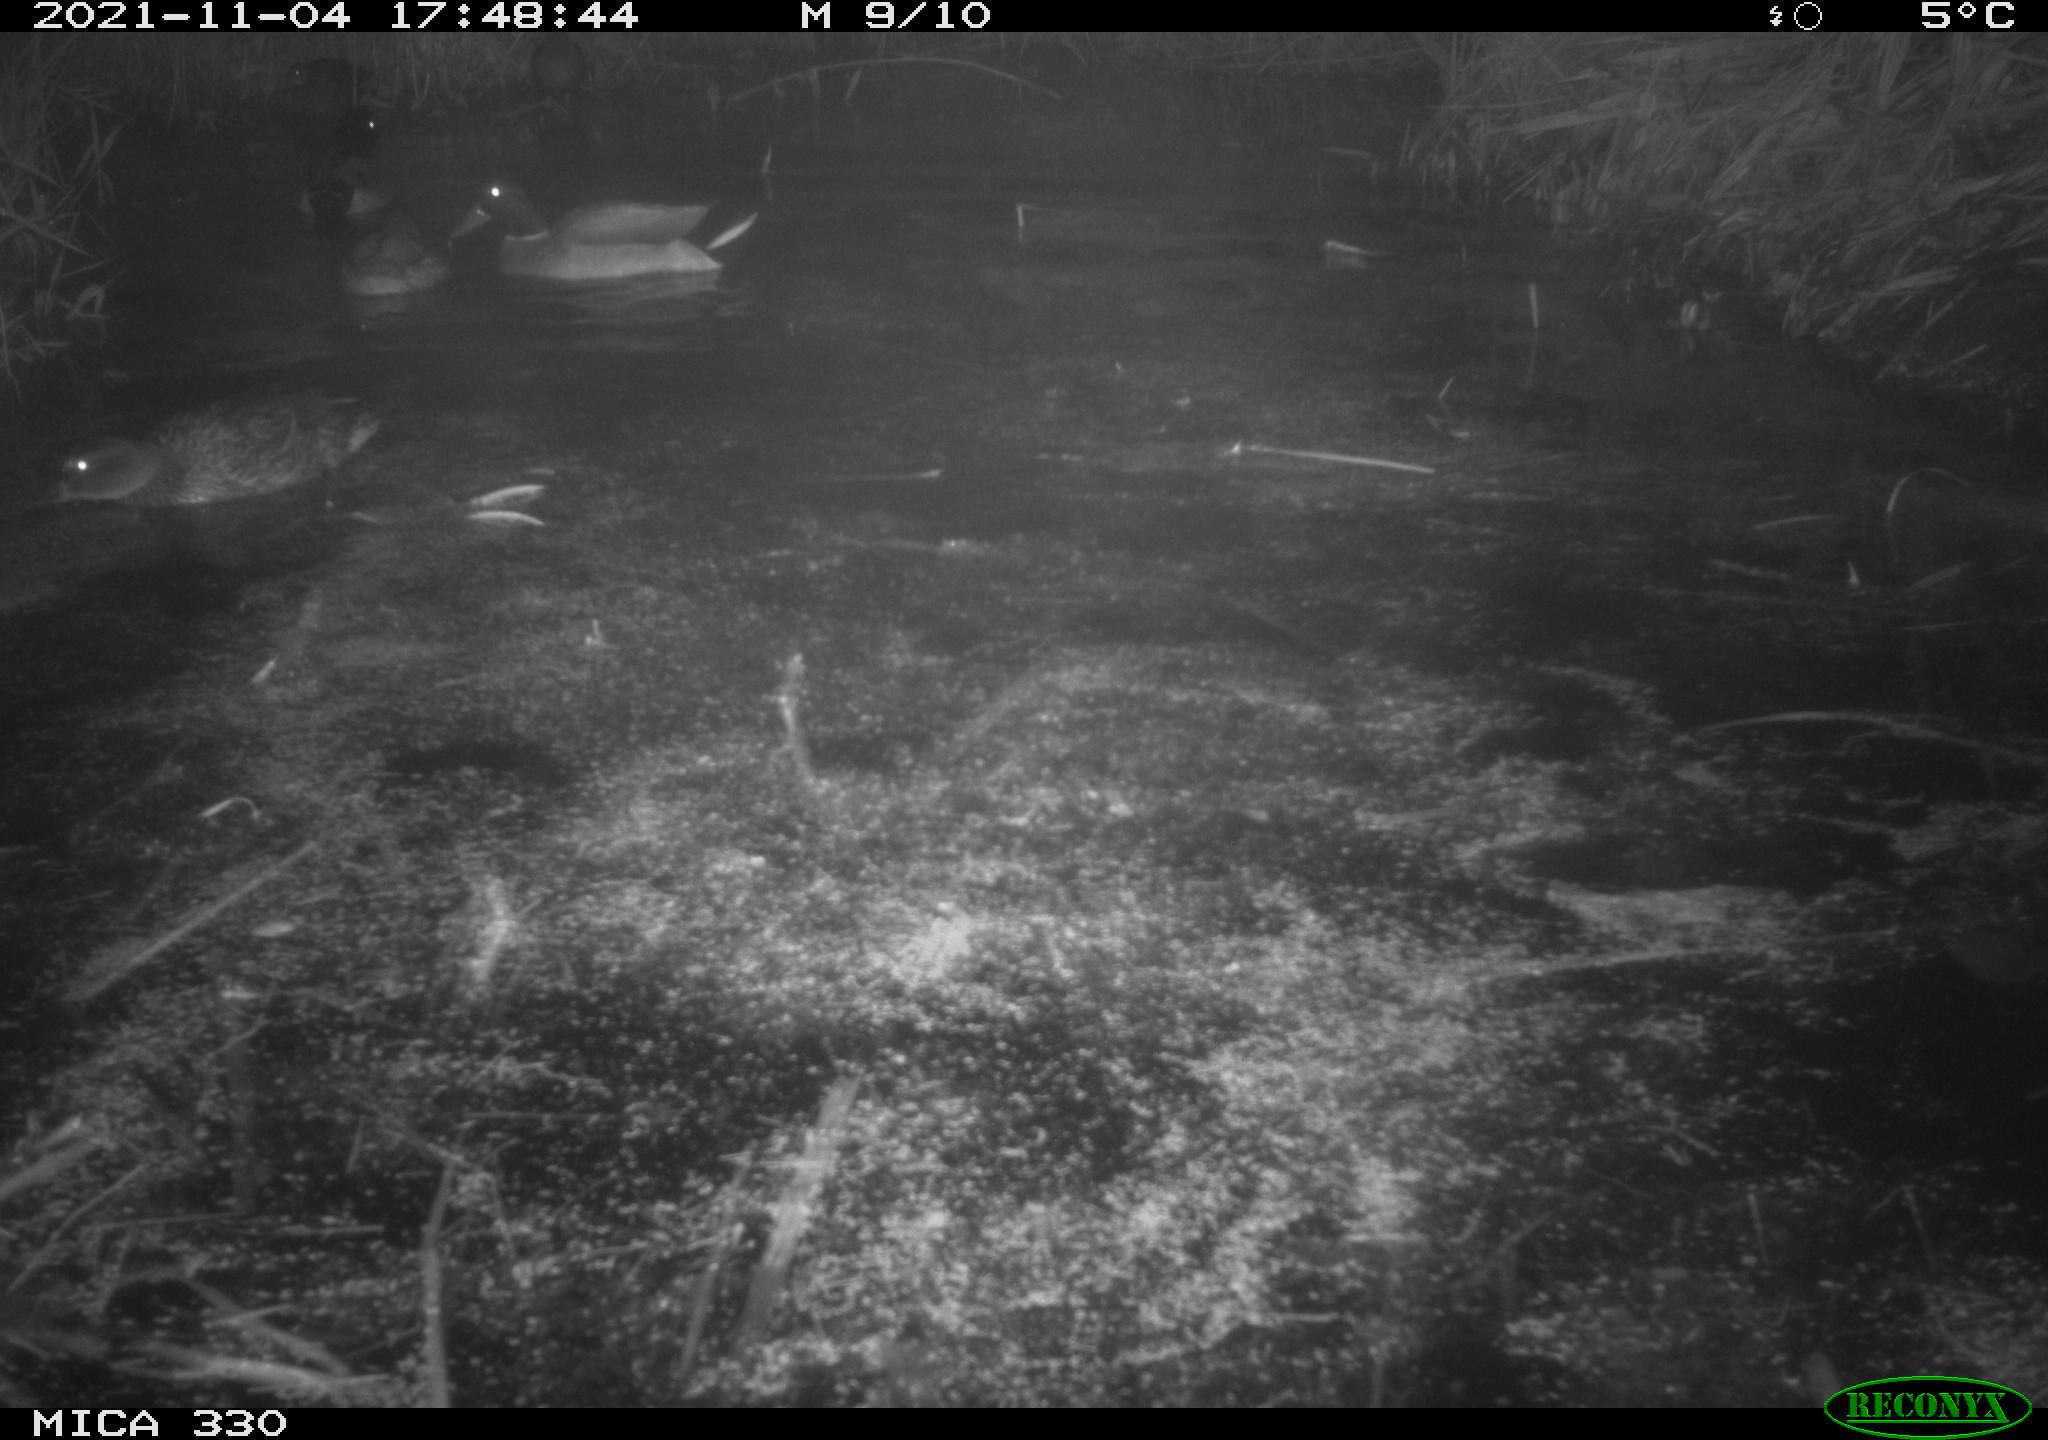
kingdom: Animalia
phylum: Chordata
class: Aves
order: Anseriformes
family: Anatidae
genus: Anas
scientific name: Anas platyrhynchos
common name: Mallard
